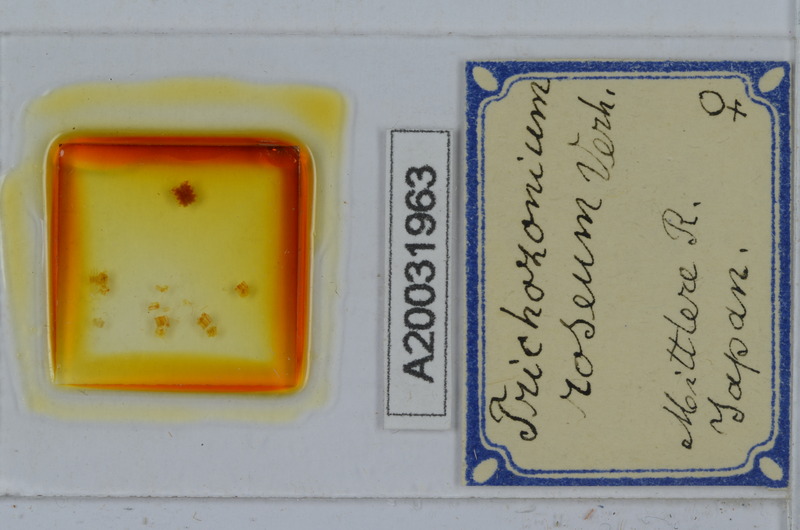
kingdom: Animalia
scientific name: Animalia
